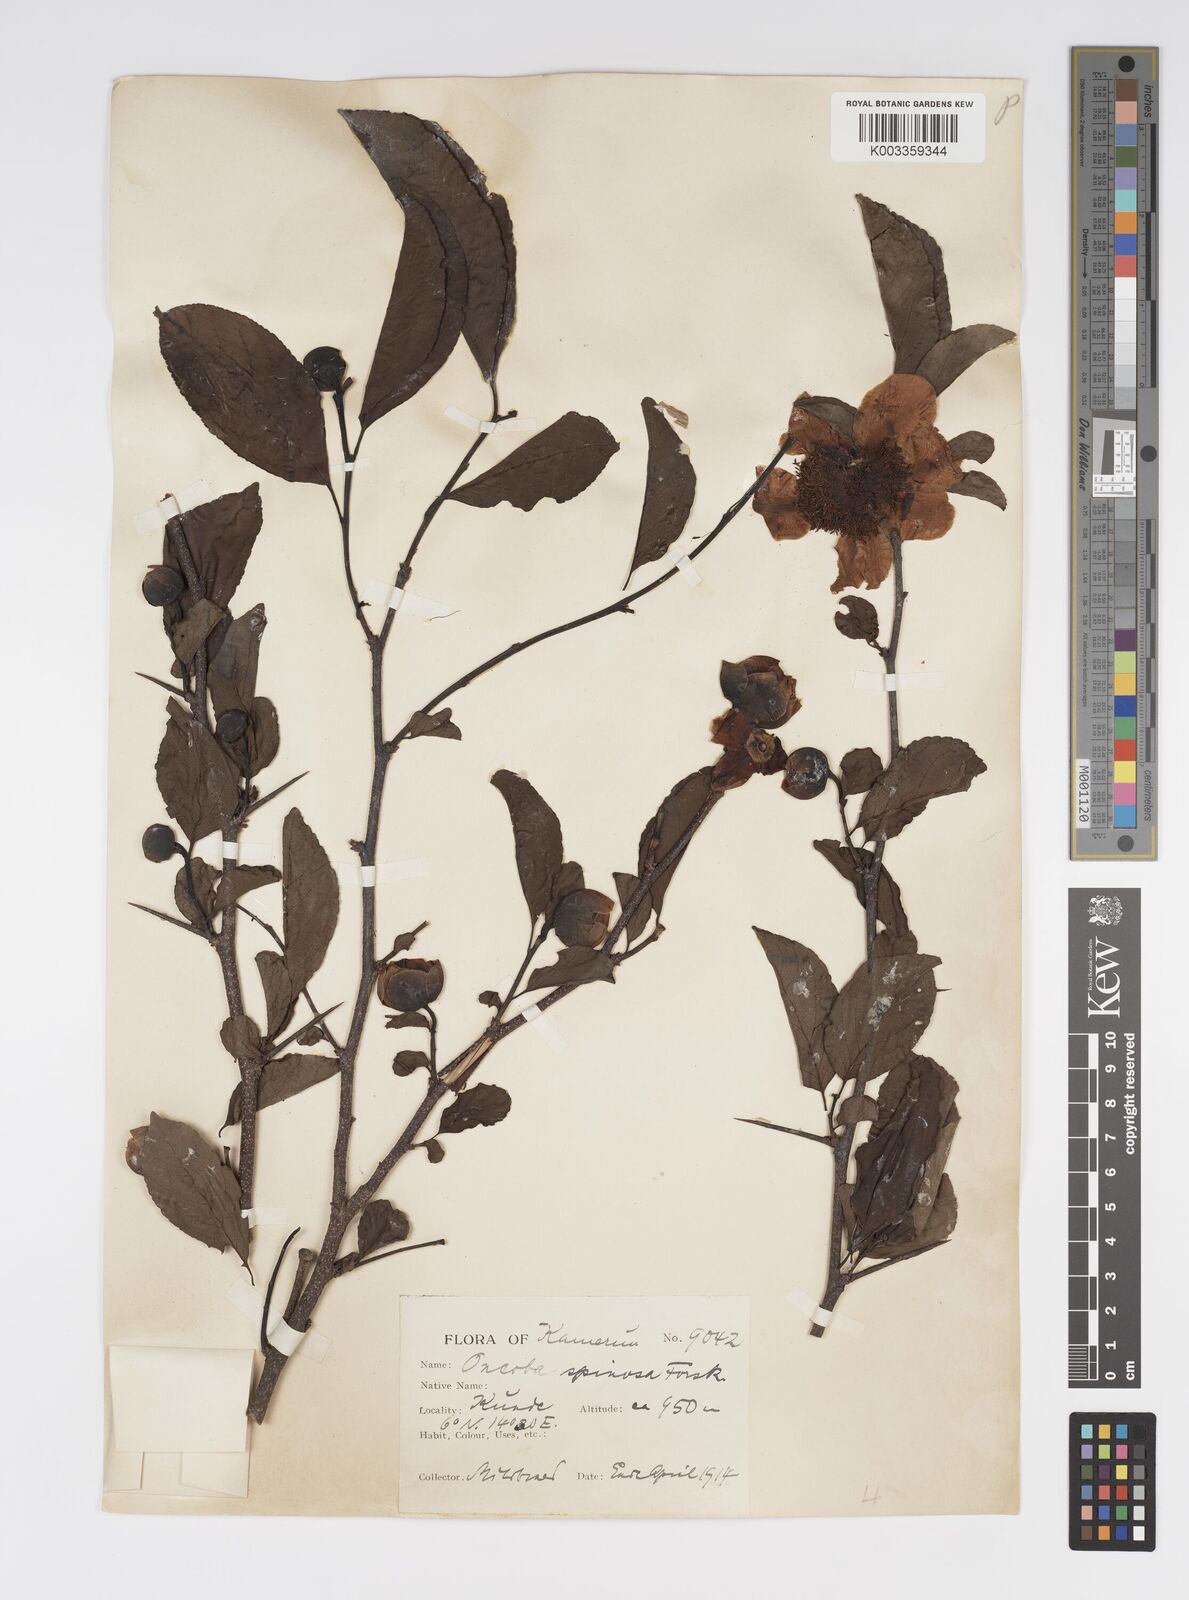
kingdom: Plantae
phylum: Tracheophyta
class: Magnoliopsida
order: Malpighiales
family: Salicaceae
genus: Oncoba
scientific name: Oncoba spinosa
